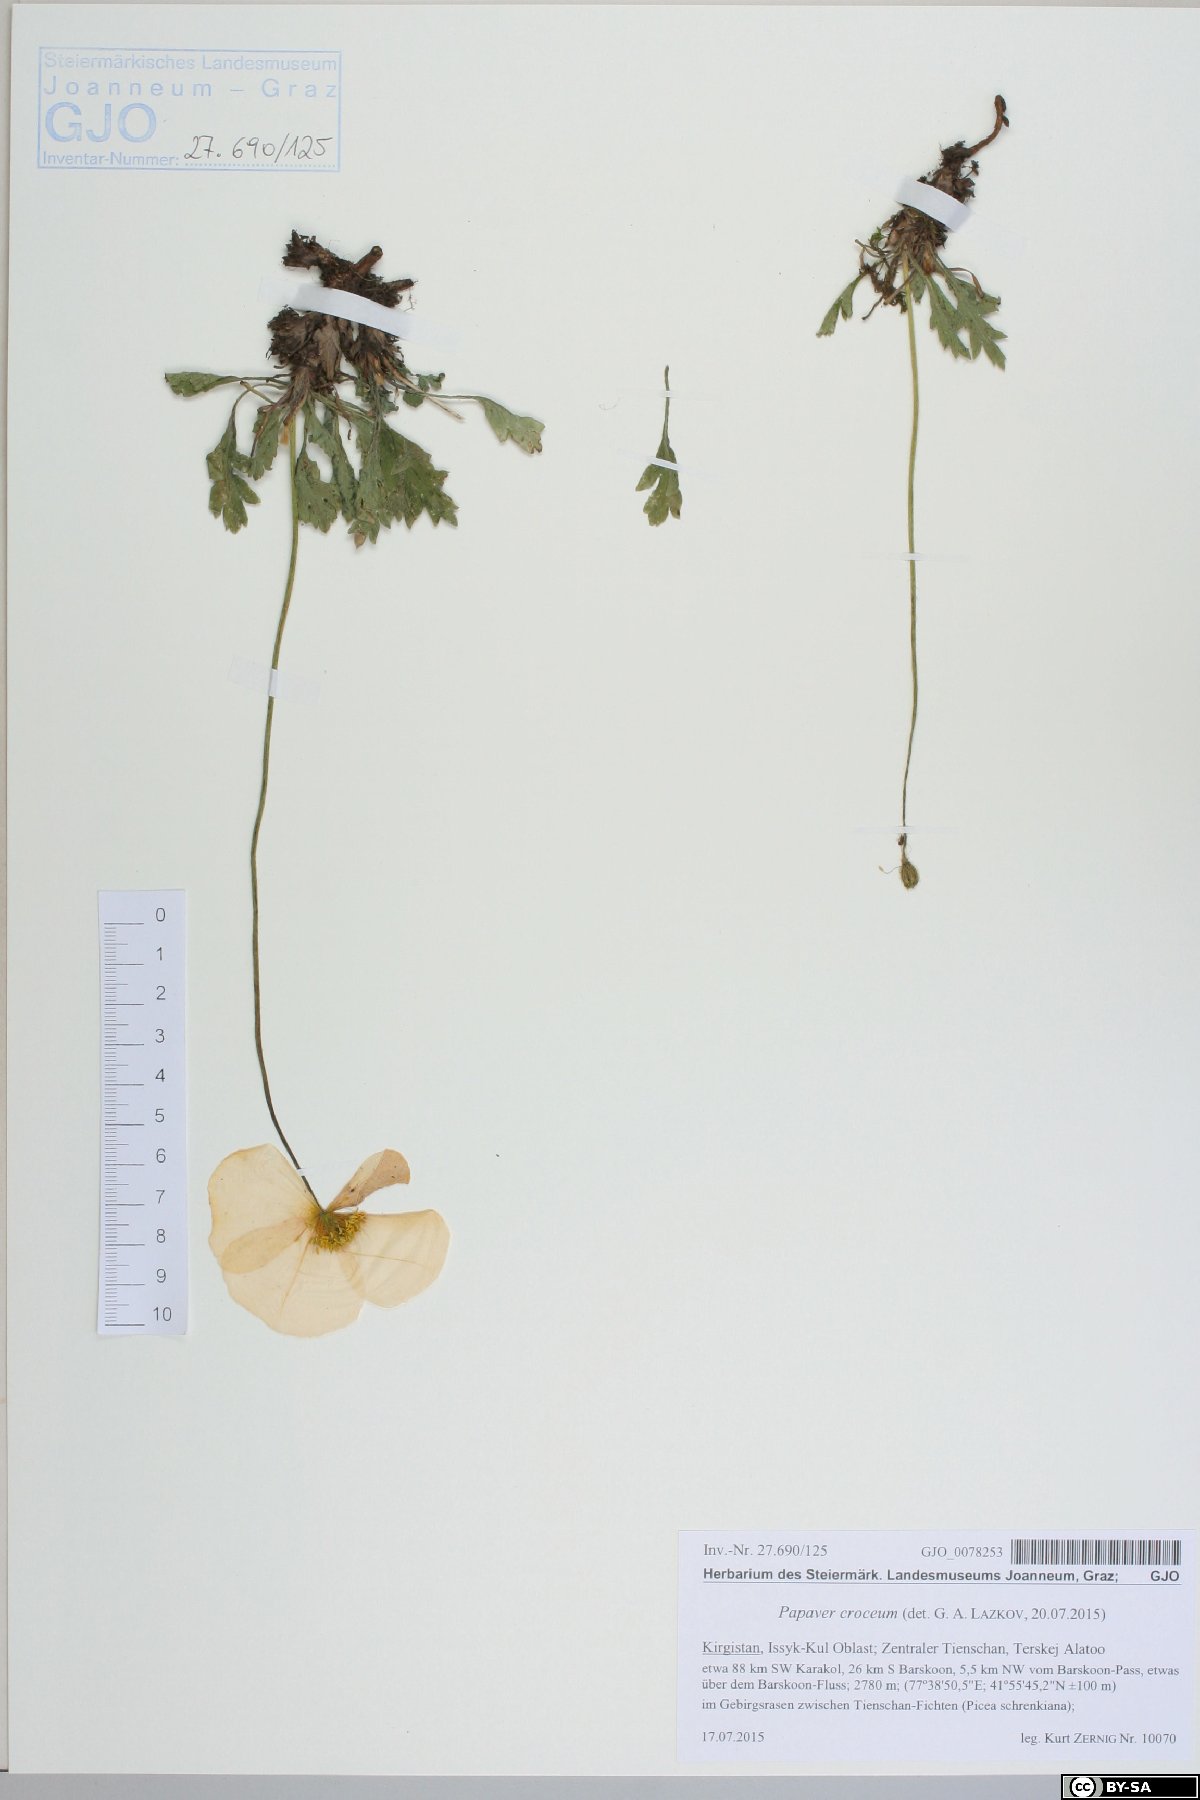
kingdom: Plantae
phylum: Tracheophyta
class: Magnoliopsida
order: Ranunculales
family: Papaveraceae
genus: Papaver
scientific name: Papaver croceum
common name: Siberian poppy
